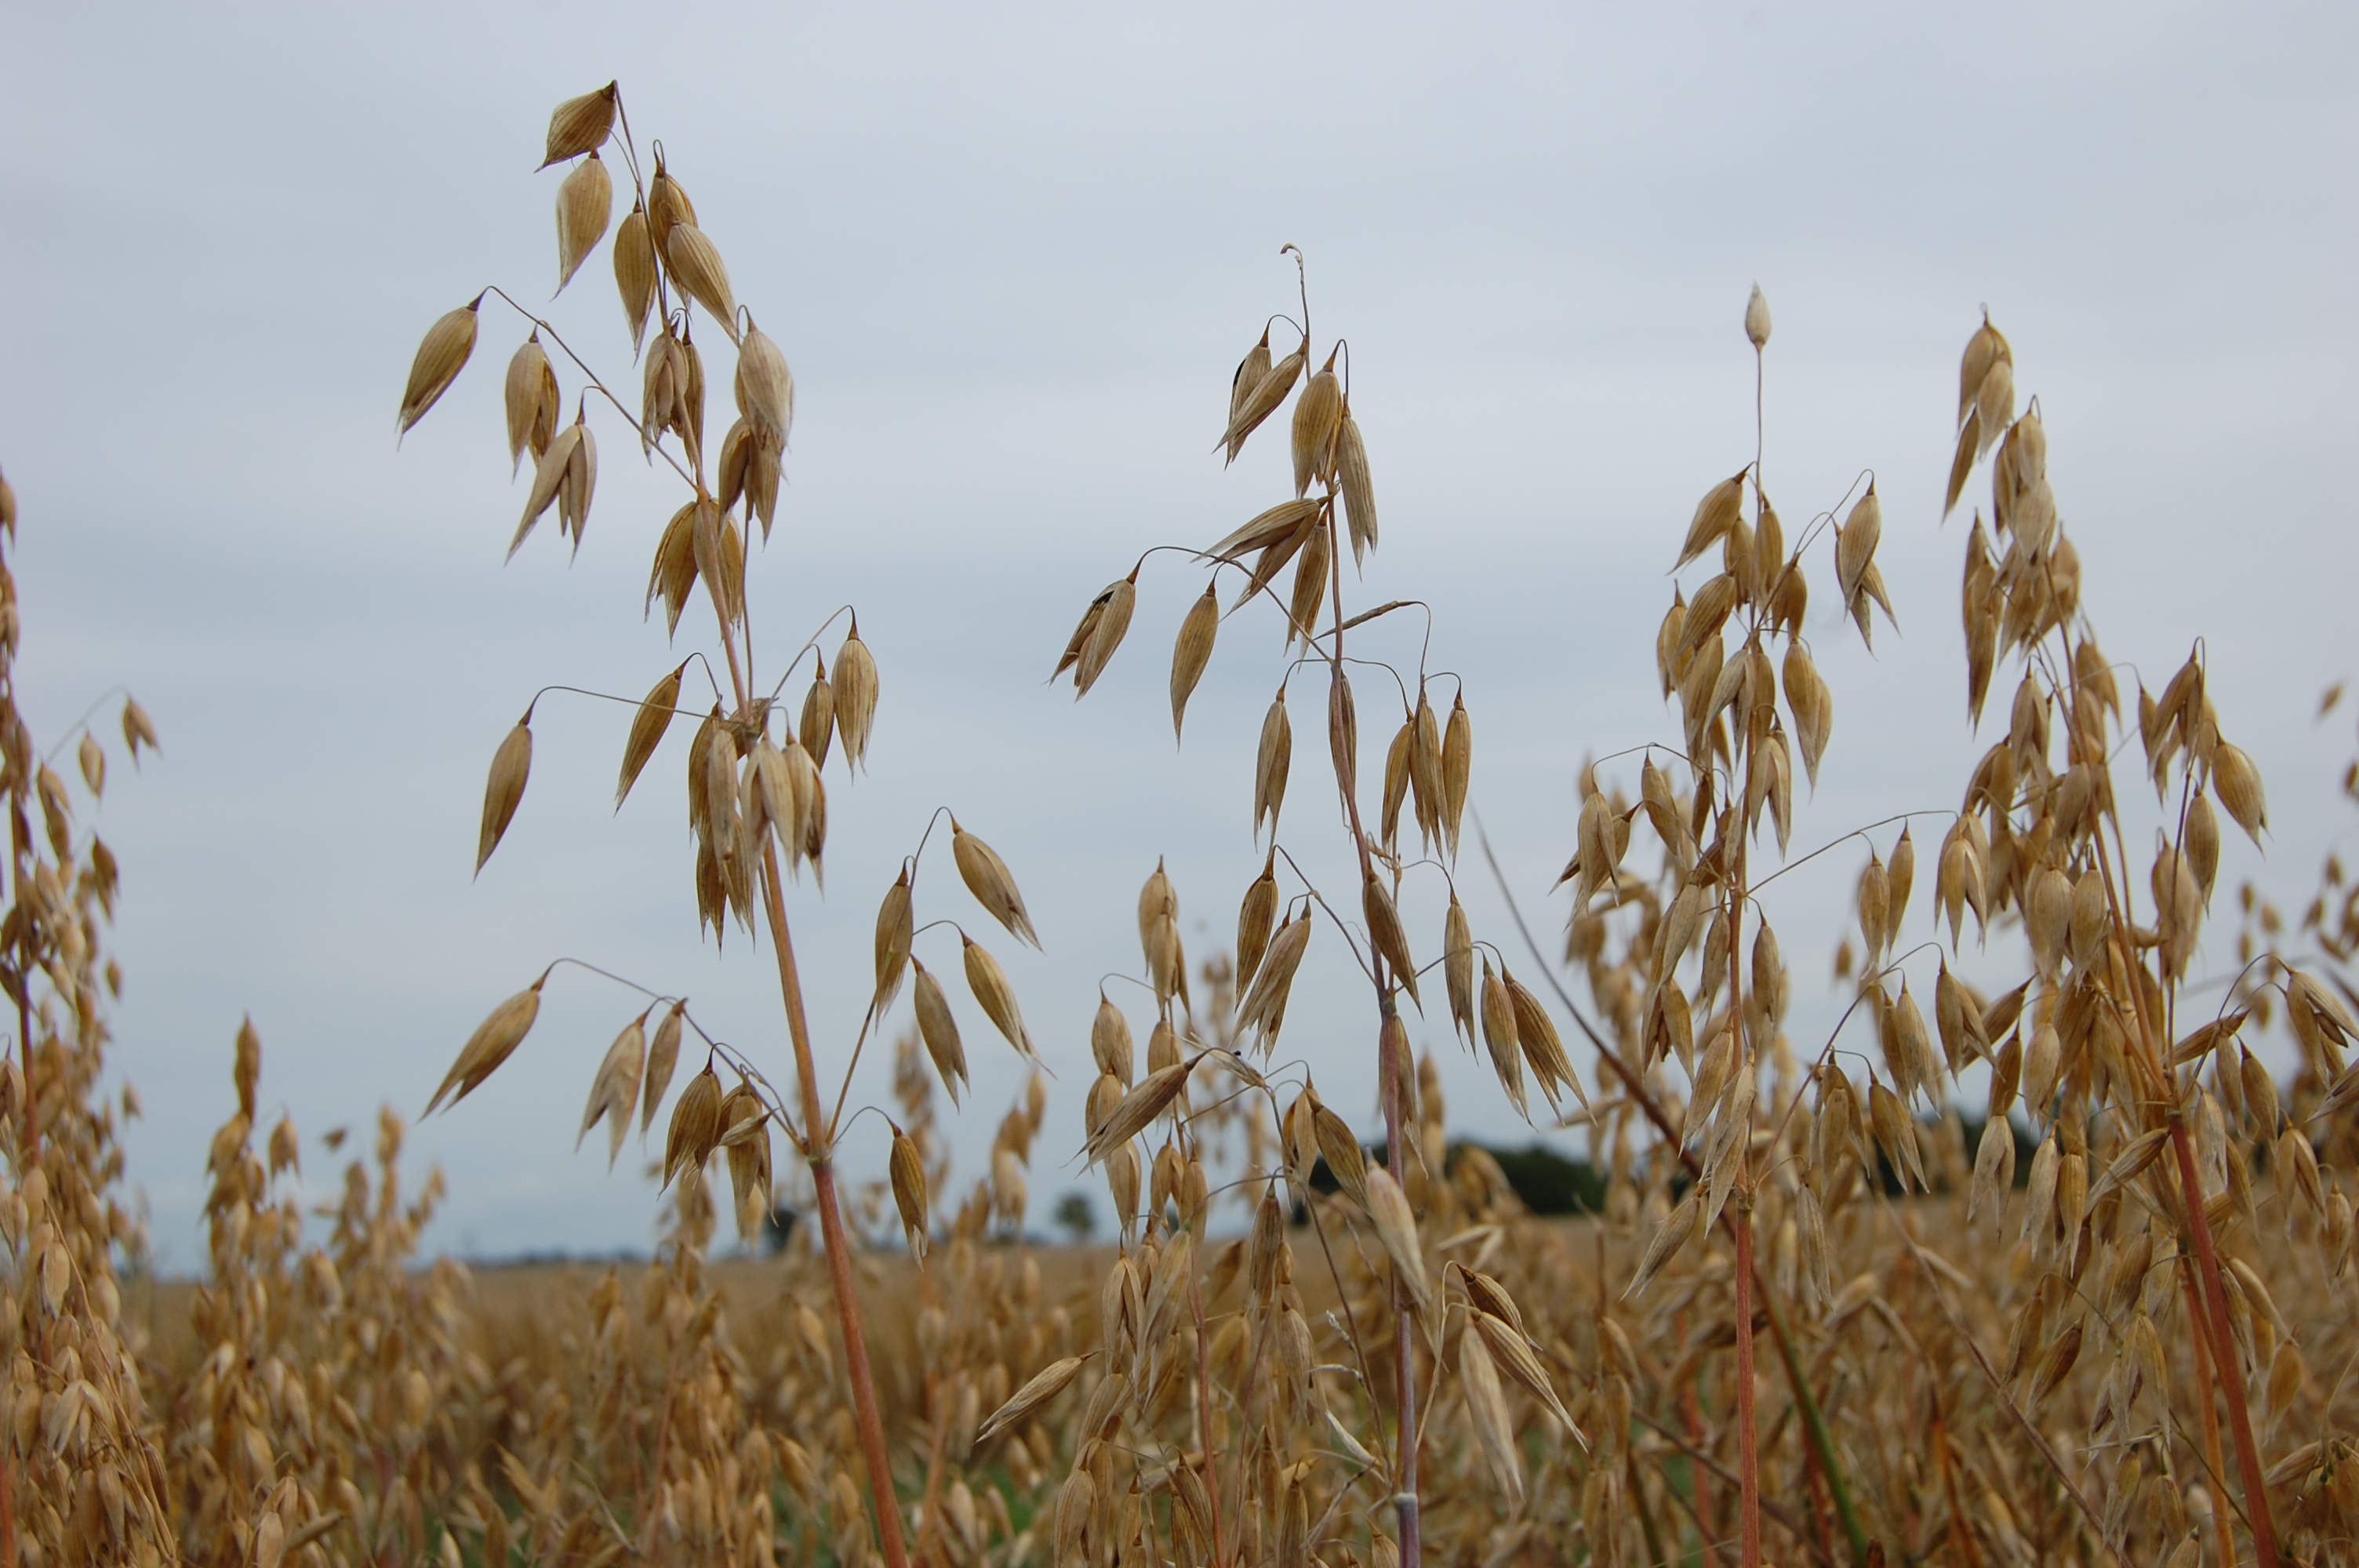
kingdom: Plantae
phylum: Tracheophyta
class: Liliopsida
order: Poales
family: Poaceae
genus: Avena
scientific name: Avena sativa
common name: Oat
